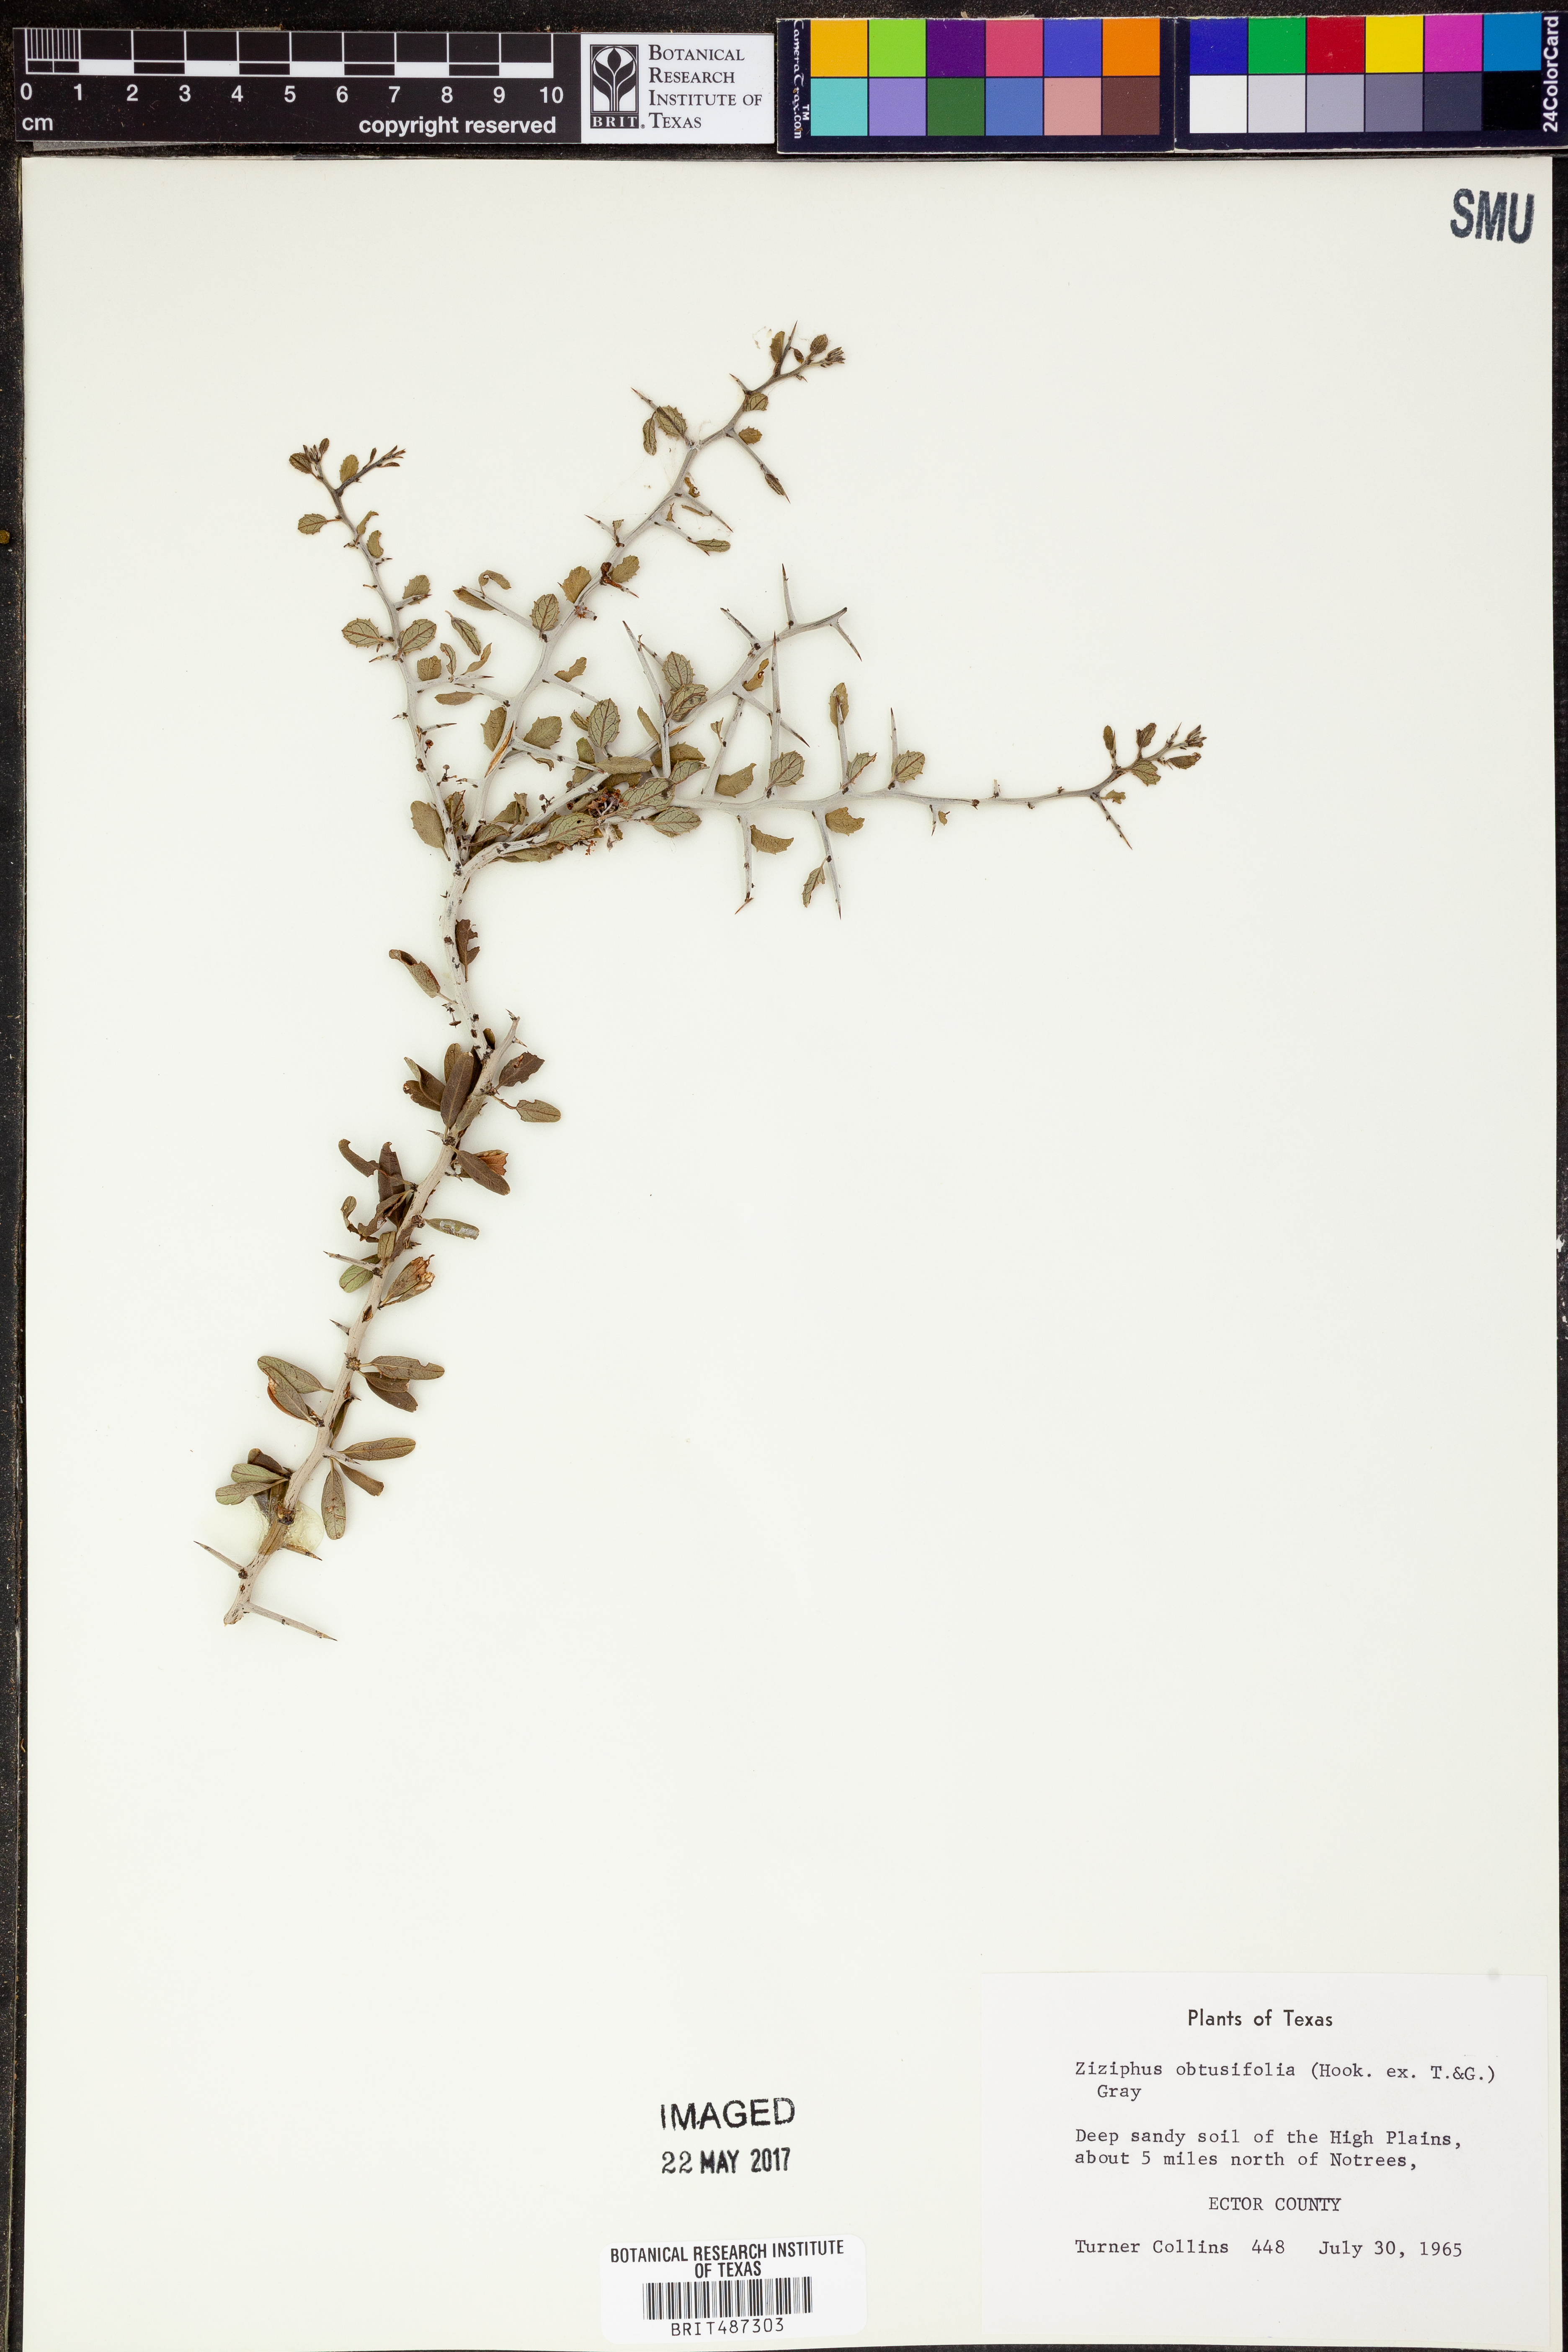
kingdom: Plantae
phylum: Tracheophyta
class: Magnoliopsida
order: Rosales
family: Rhamnaceae
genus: Sarcomphalus
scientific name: Sarcomphalus obtusifolius
